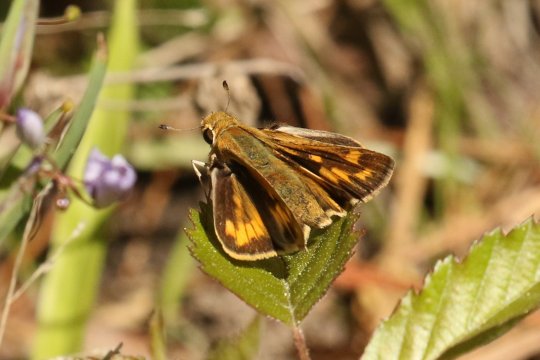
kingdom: Animalia
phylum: Arthropoda
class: Insecta
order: Lepidoptera
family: Hesperiidae
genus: Hylephila
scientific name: Hylephila phyleus
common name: Fiery Skipper
